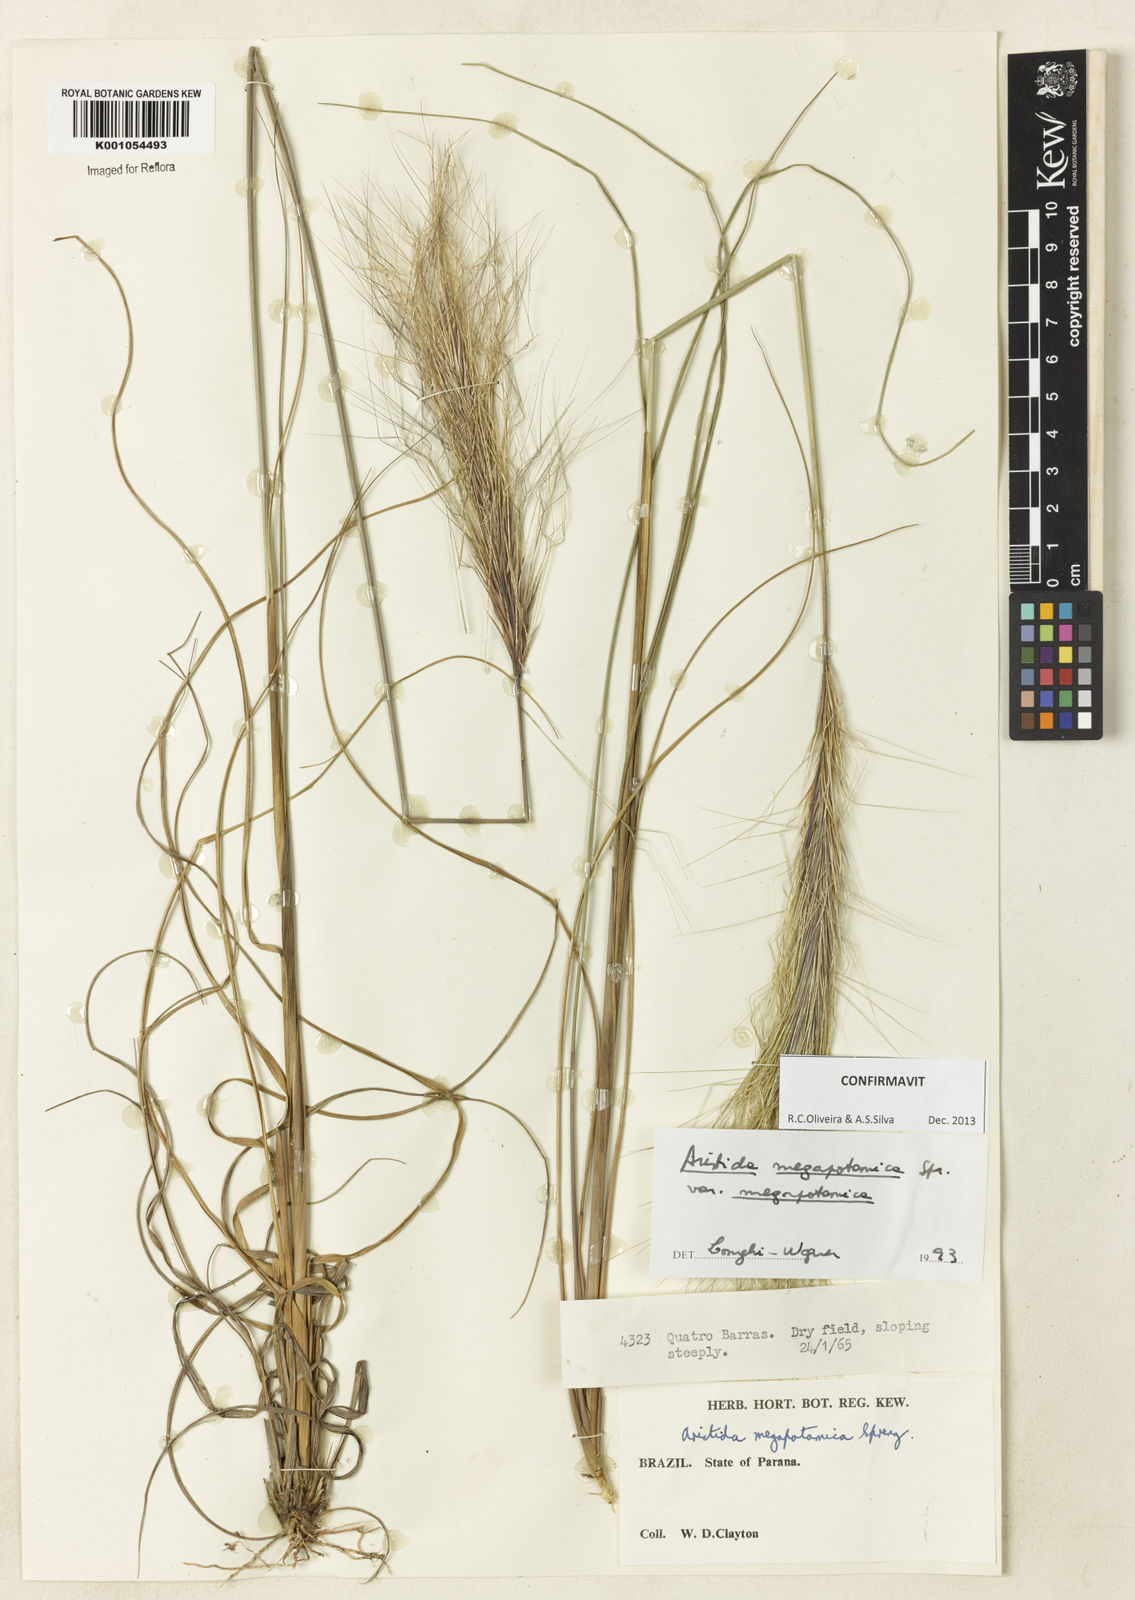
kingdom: Plantae
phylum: Tracheophyta
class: Liliopsida
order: Poales
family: Poaceae
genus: Aristida
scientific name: Aristida megapotamica
